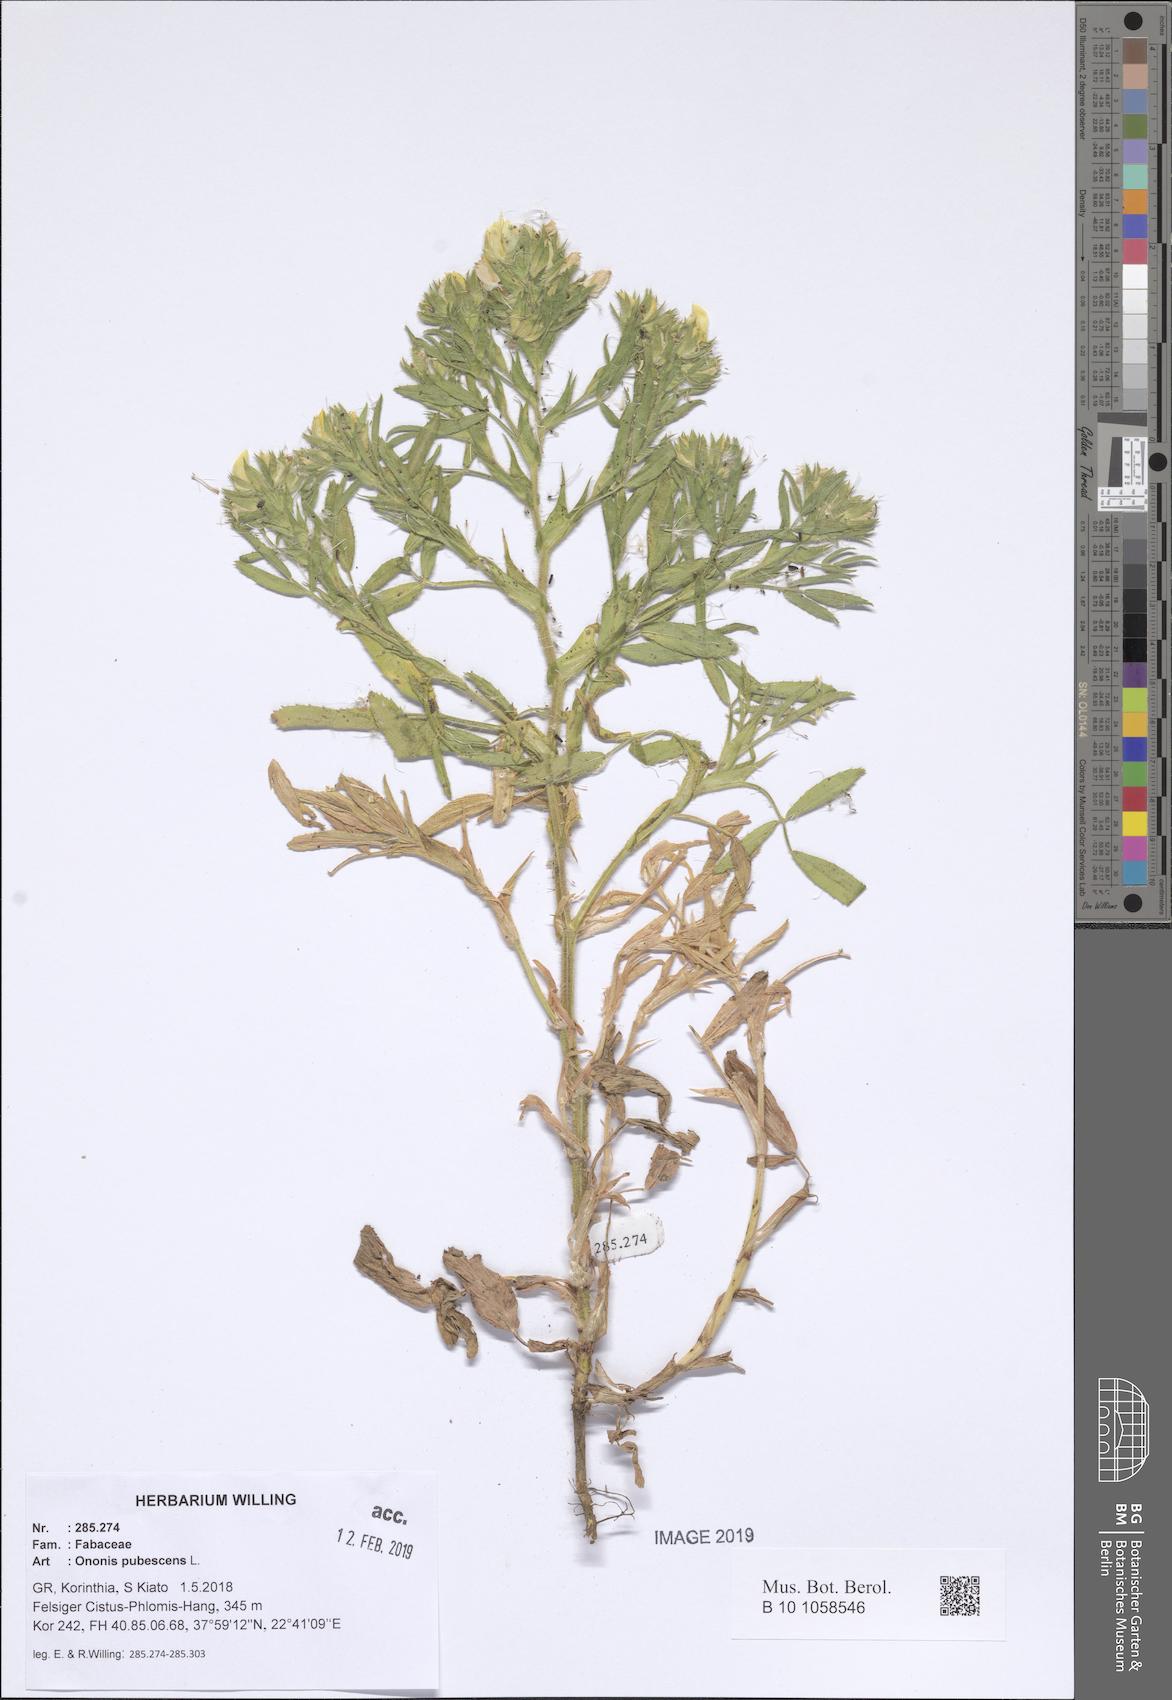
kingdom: Plantae
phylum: Tracheophyta
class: Magnoliopsida
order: Fabales
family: Fabaceae
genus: Ononis
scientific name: Ononis pubescens
